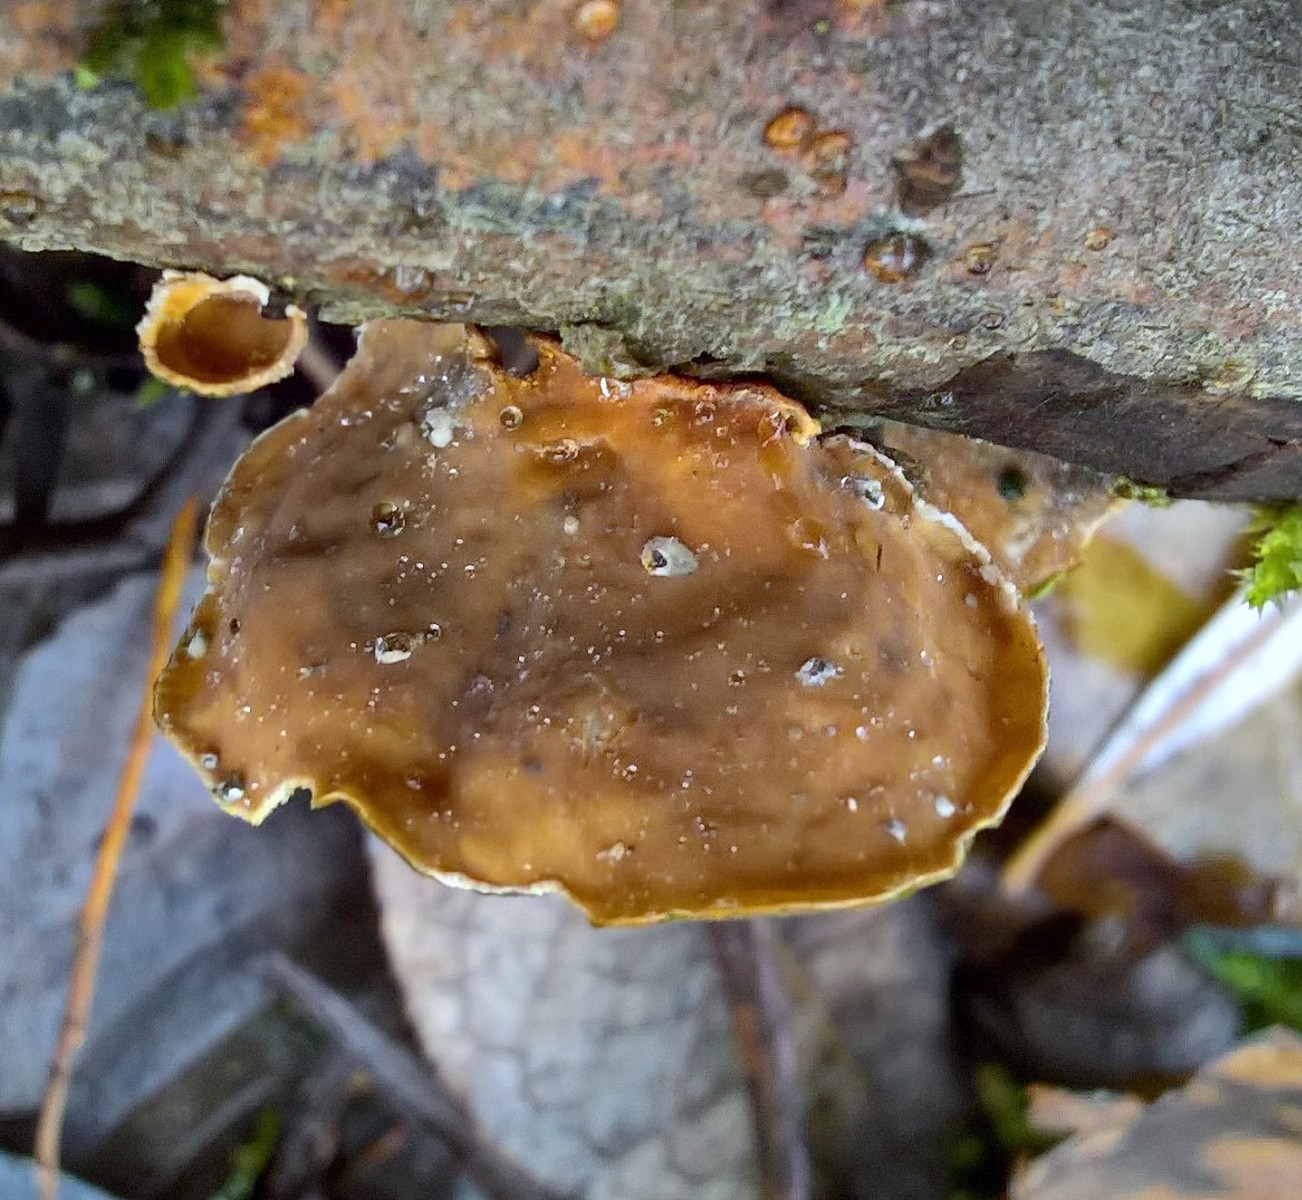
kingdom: Fungi
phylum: Basidiomycota
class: Agaricomycetes
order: Russulales
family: Stereaceae
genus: Stereum
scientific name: Stereum subtomentosum
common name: smuk lædersvamp
